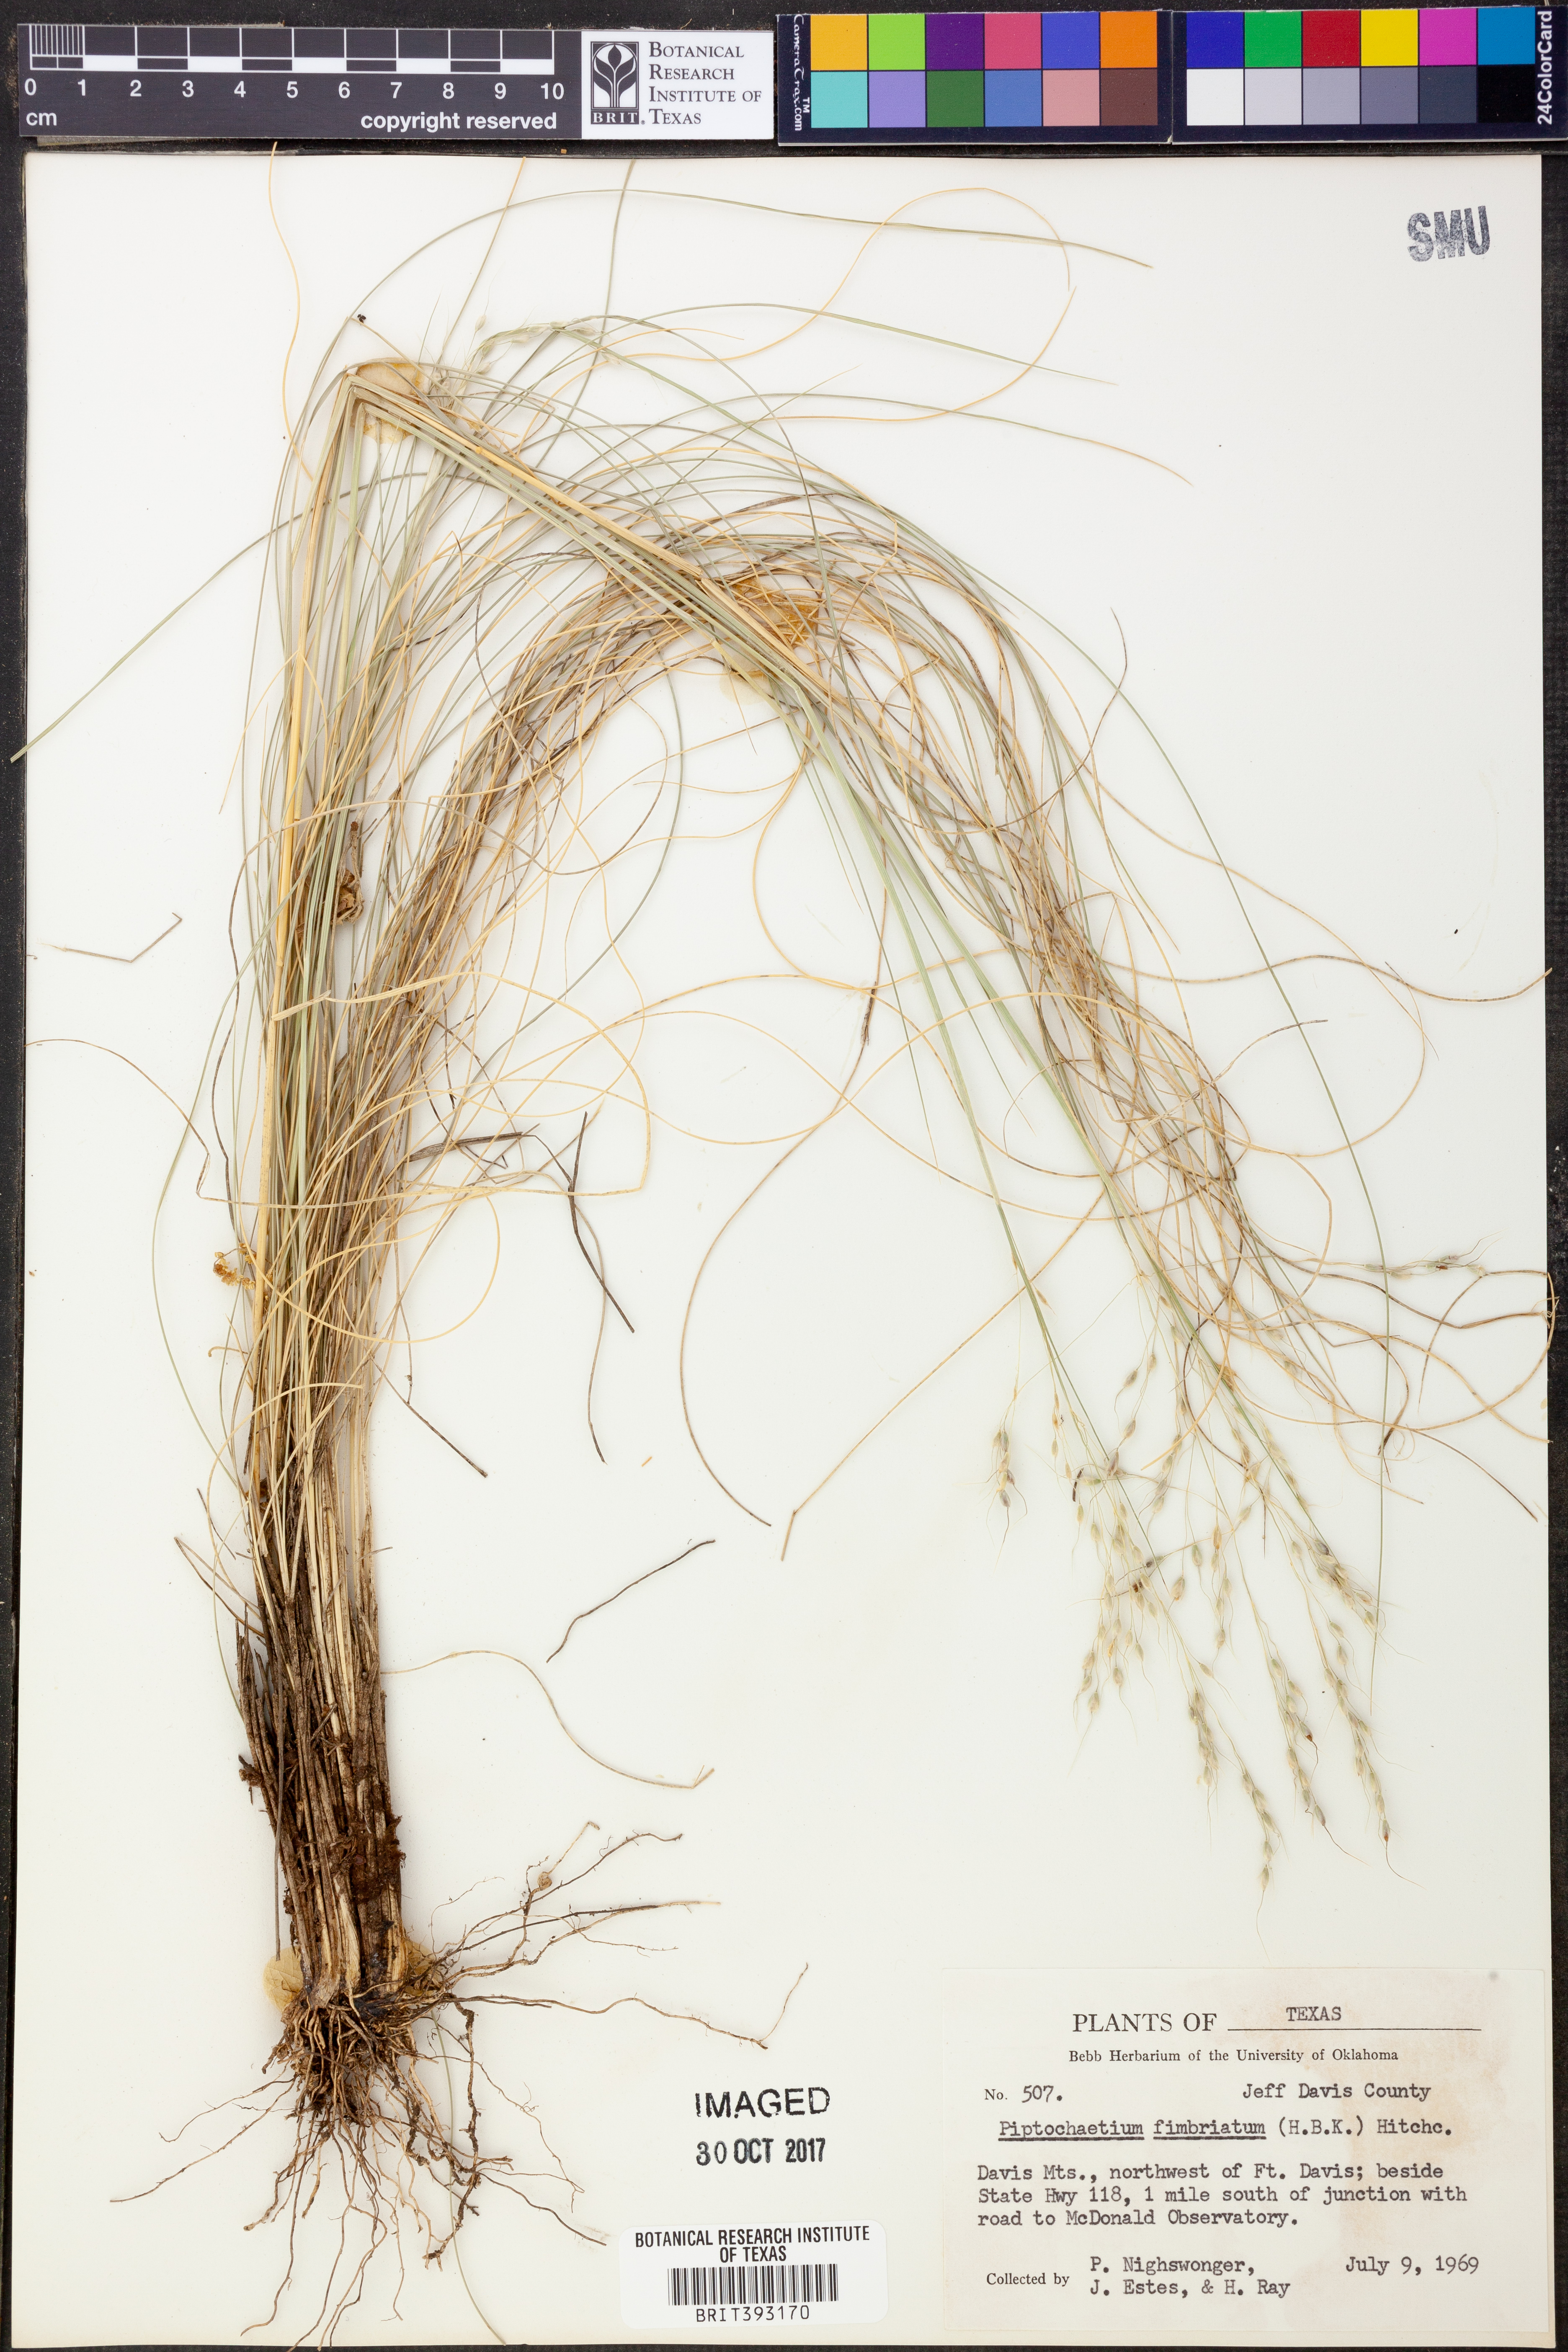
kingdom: Plantae
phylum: Tracheophyta
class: Liliopsida
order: Poales
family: Poaceae
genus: Piptochaetium
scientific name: Piptochaetium fimbriatum
